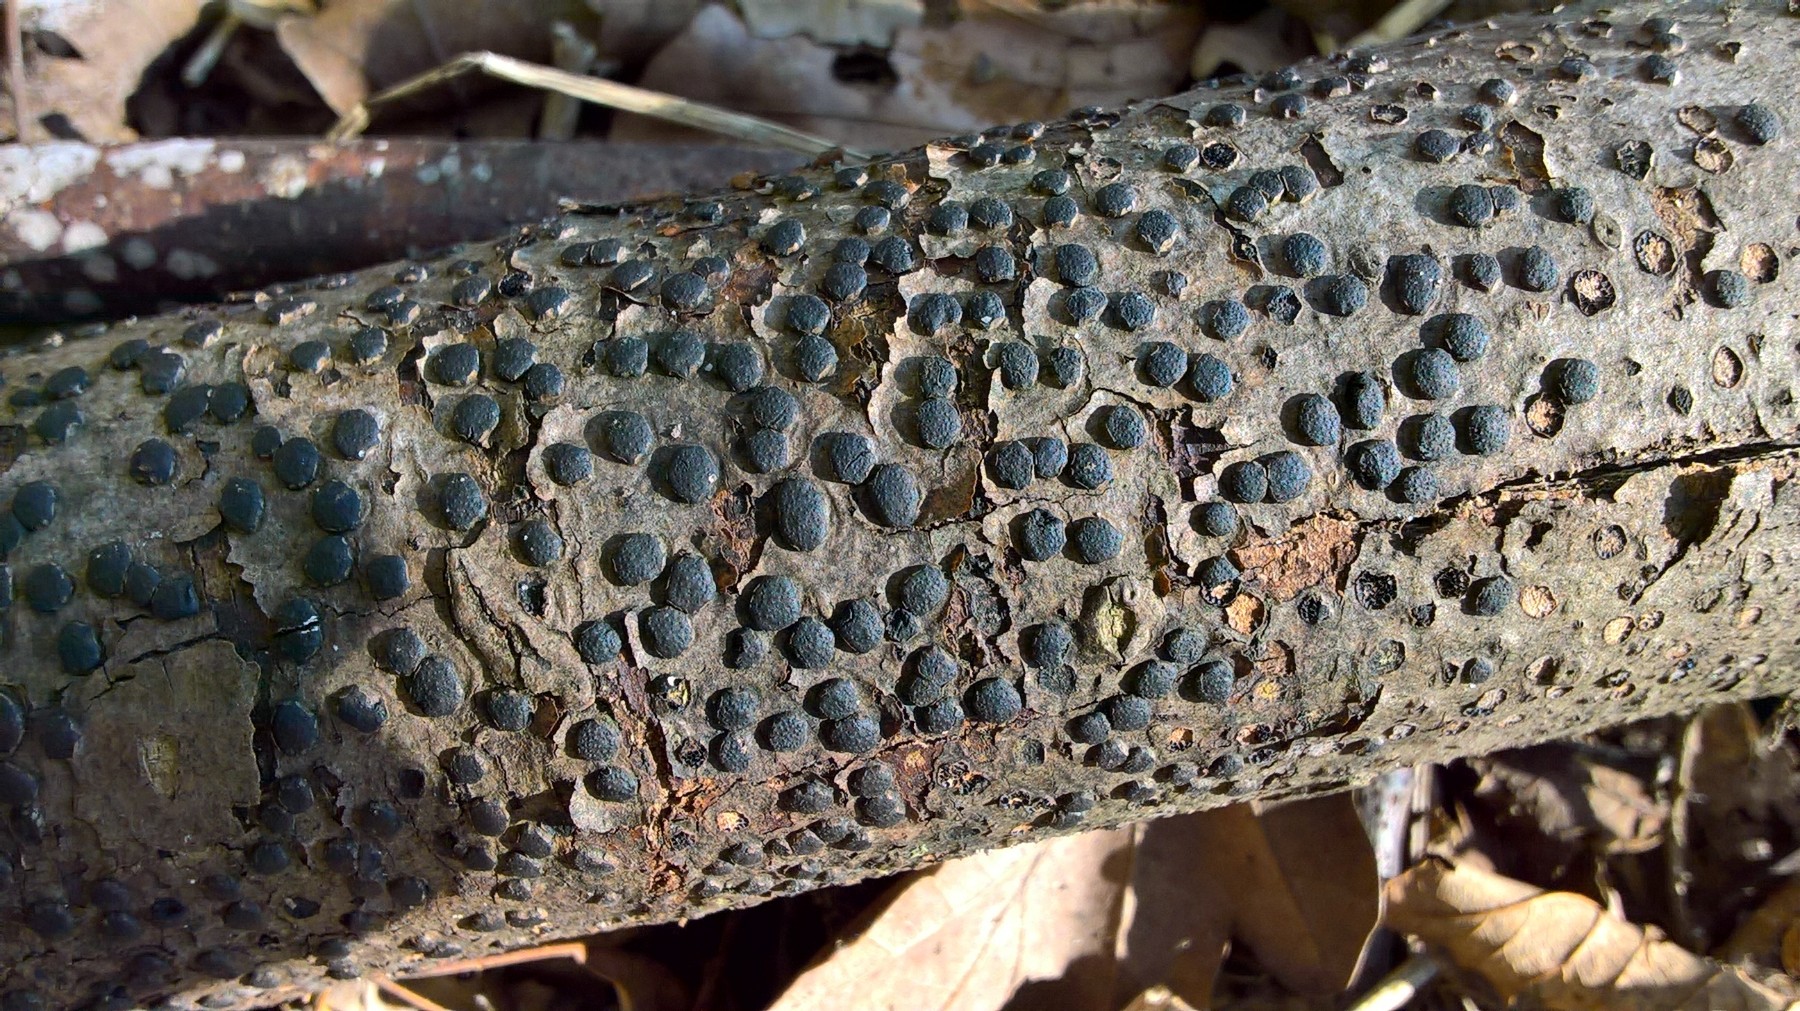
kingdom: Fungi
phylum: Ascomycota
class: Sordariomycetes
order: Xylariales
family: Diatrypaceae
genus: Diatrype
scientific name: Diatrype disciformis
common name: kant-kulskorpe
